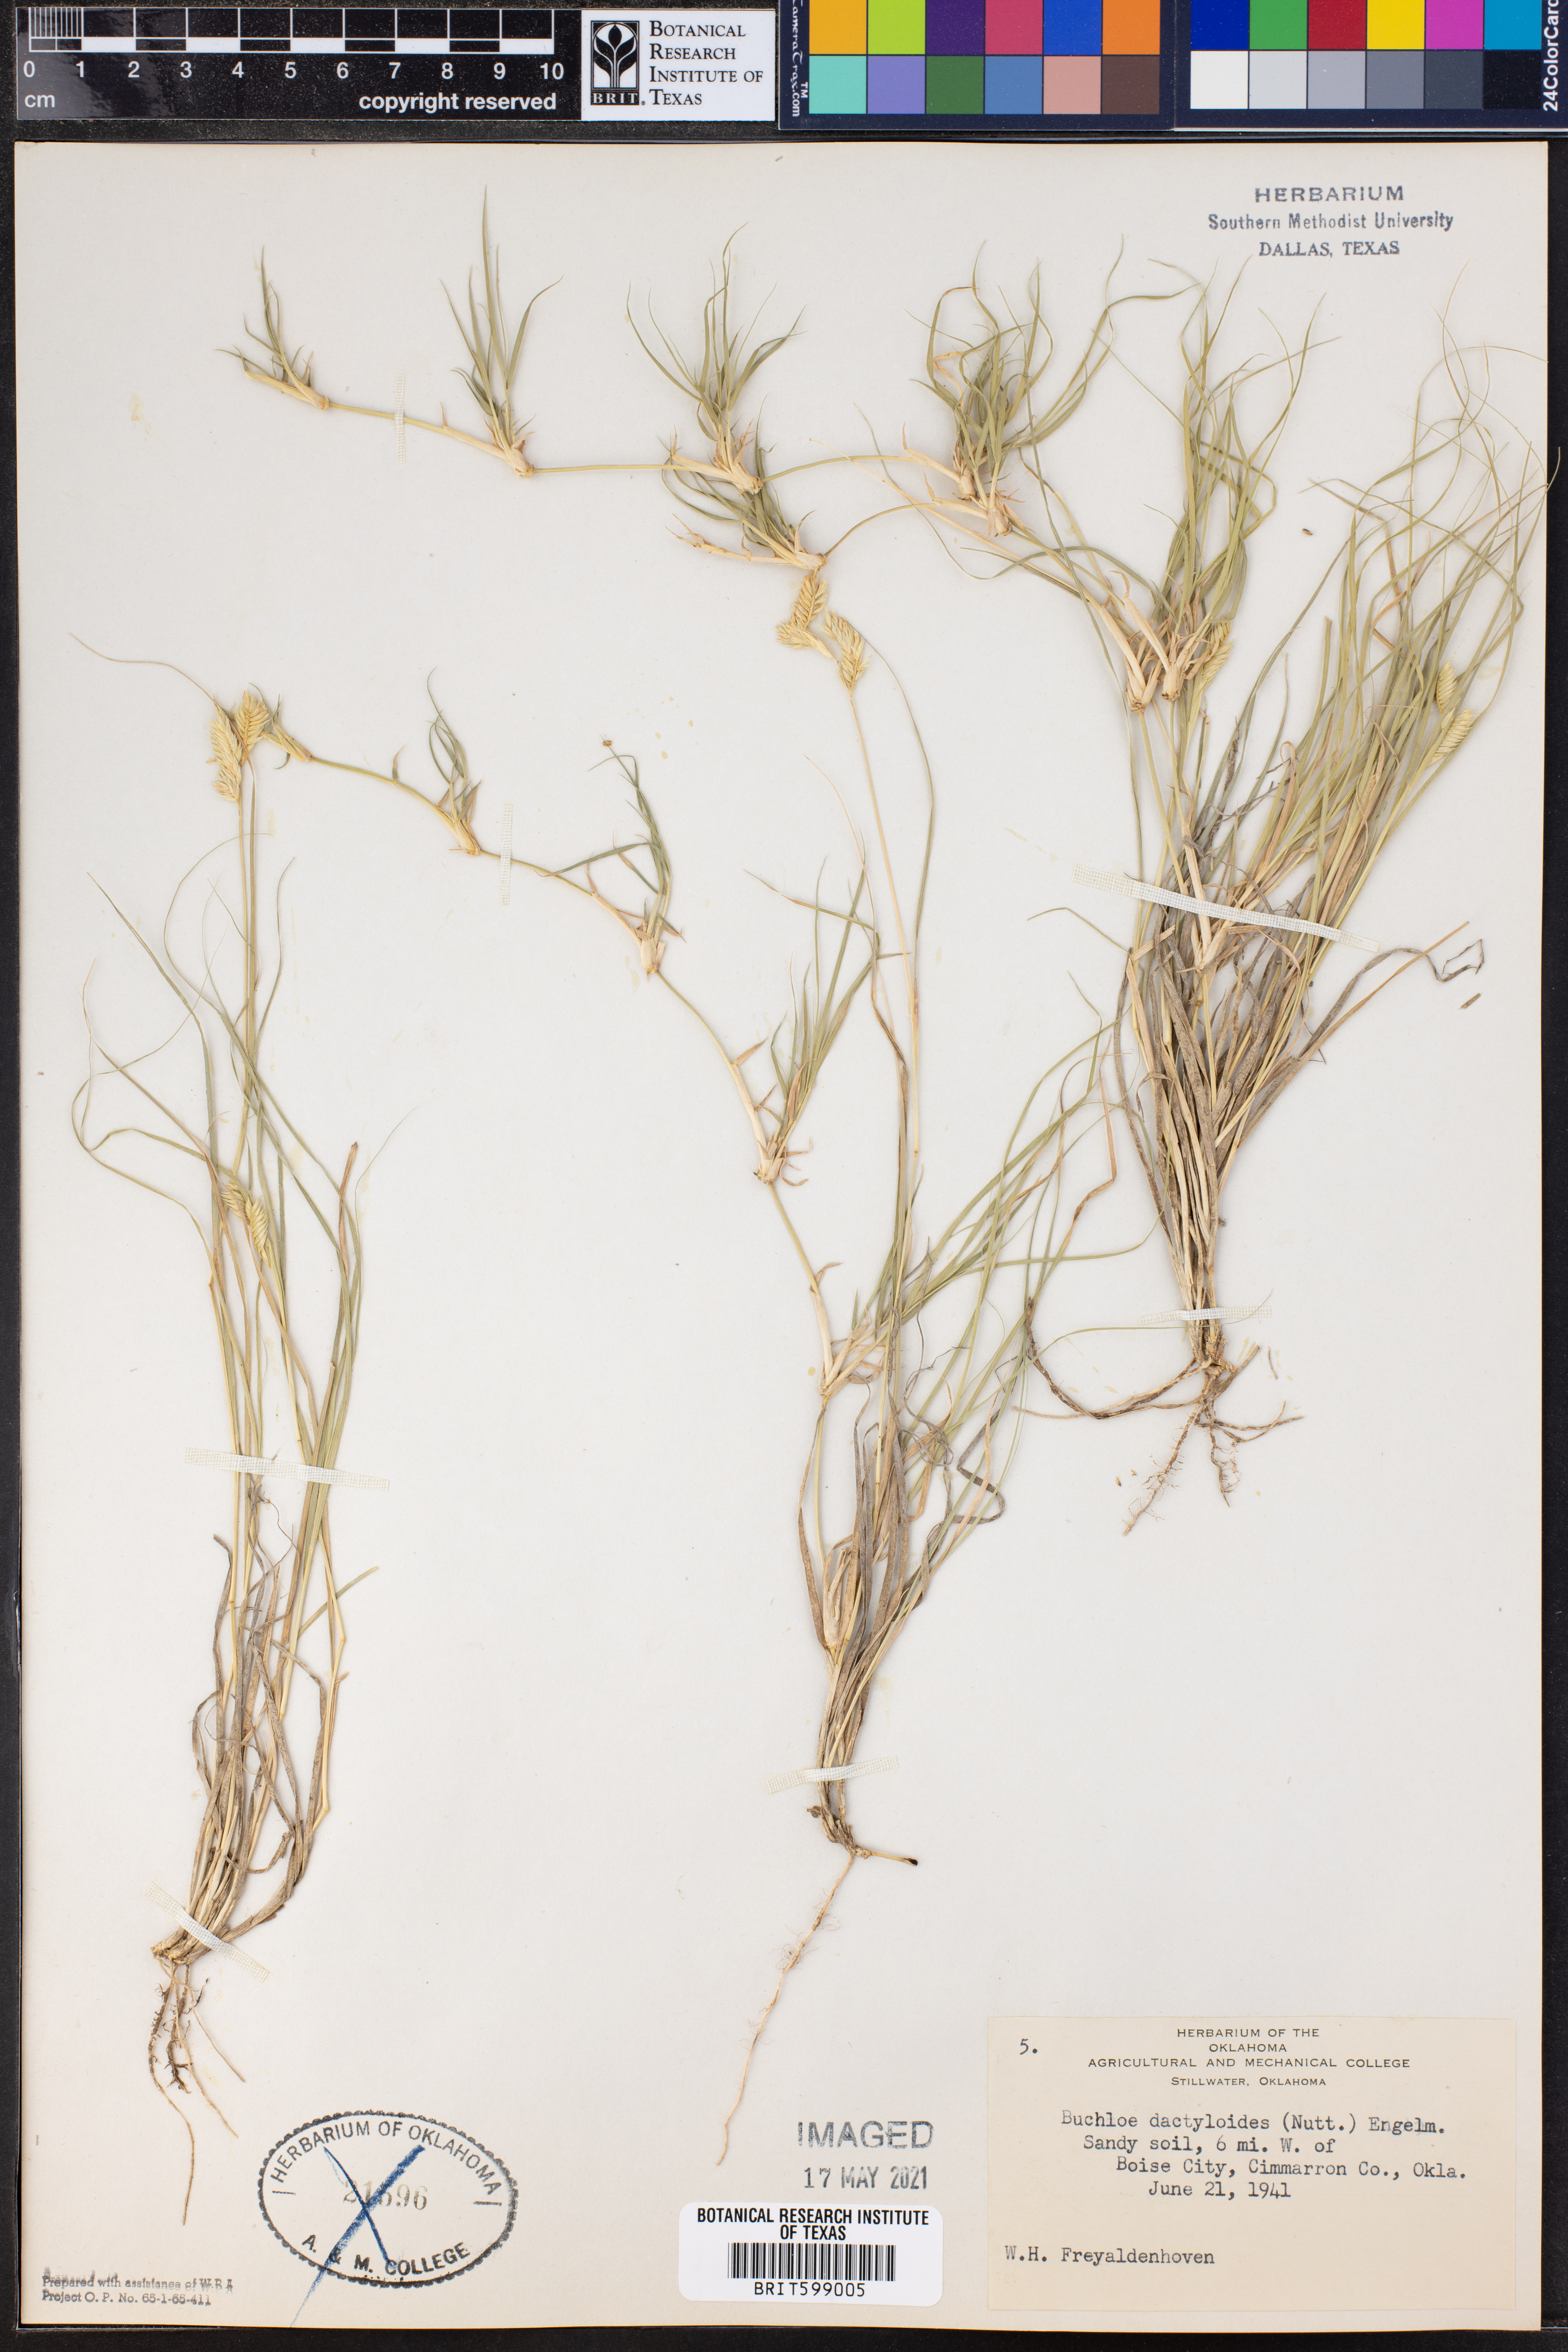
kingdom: Plantae
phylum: Tracheophyta
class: Liliopsida
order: Poales
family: Poaceae
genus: Bouteloua
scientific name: Bouteloua dactyloides
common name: Buffalo grass
